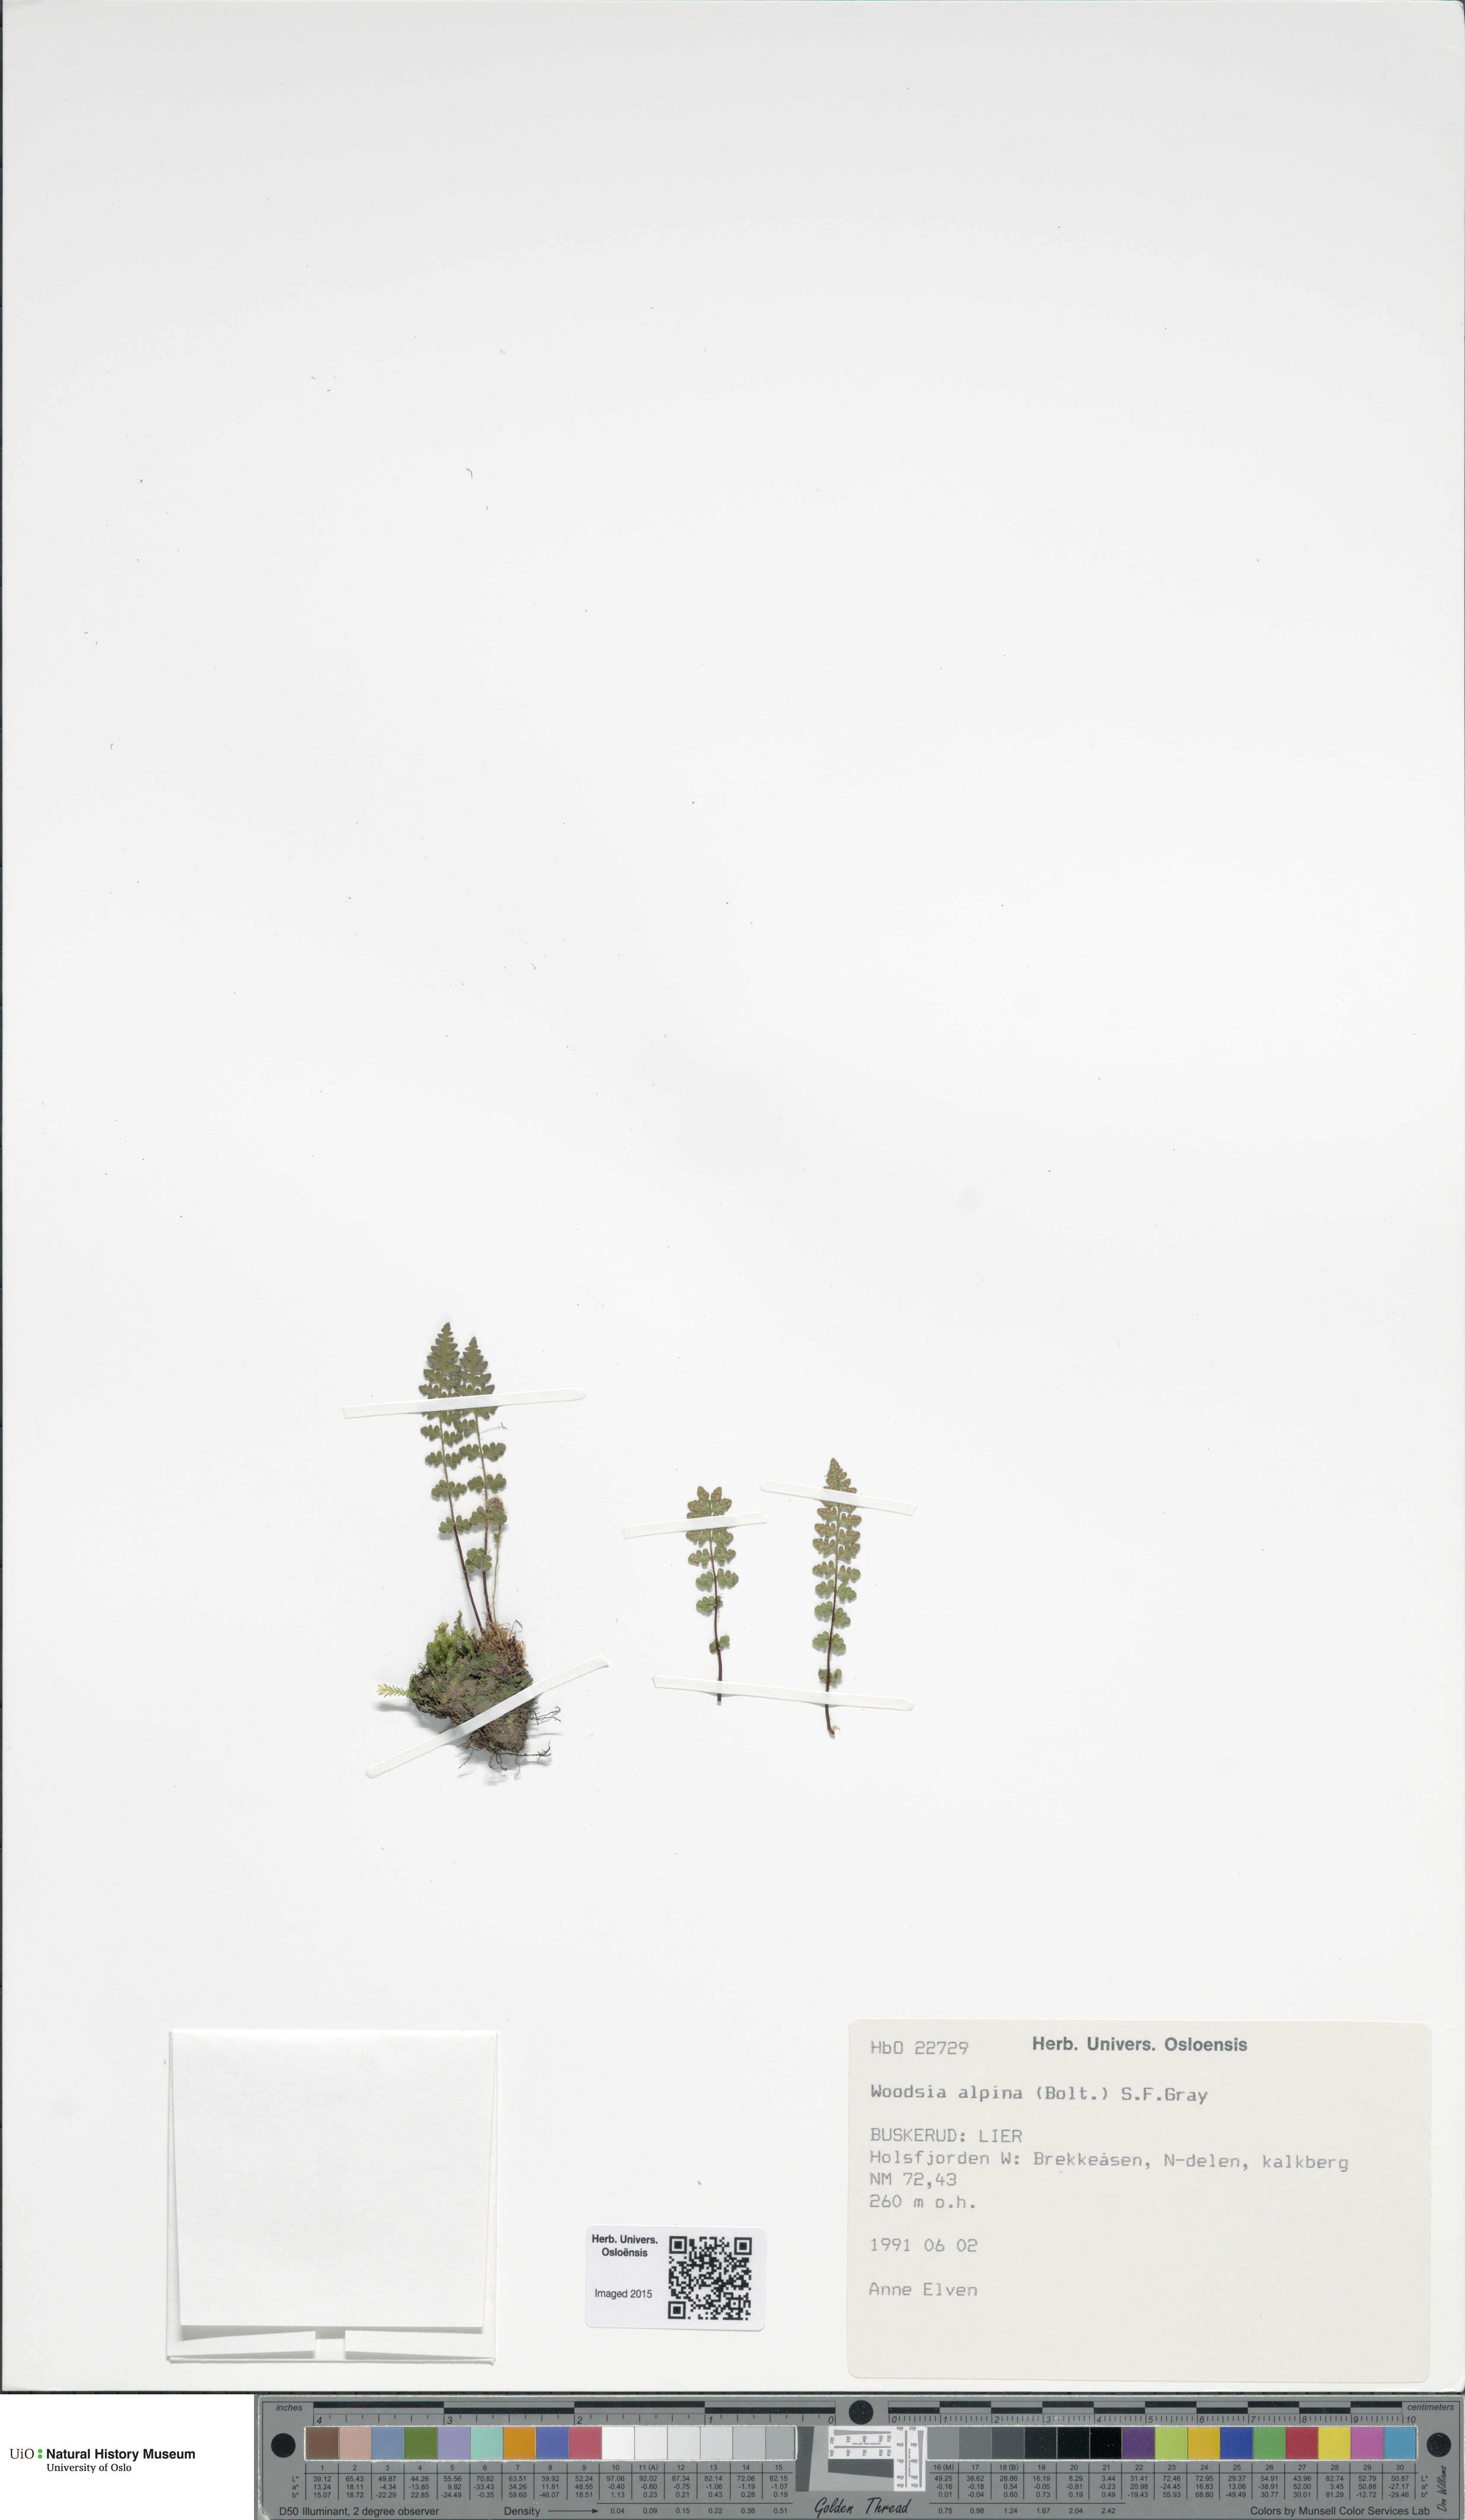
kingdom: Plantae
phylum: Tracheophyta
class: Polypodiopsida
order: Polypodiales
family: Woodsiaceae
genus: Woodsia
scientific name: Woodsia alpina
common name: Alpine woodsia
